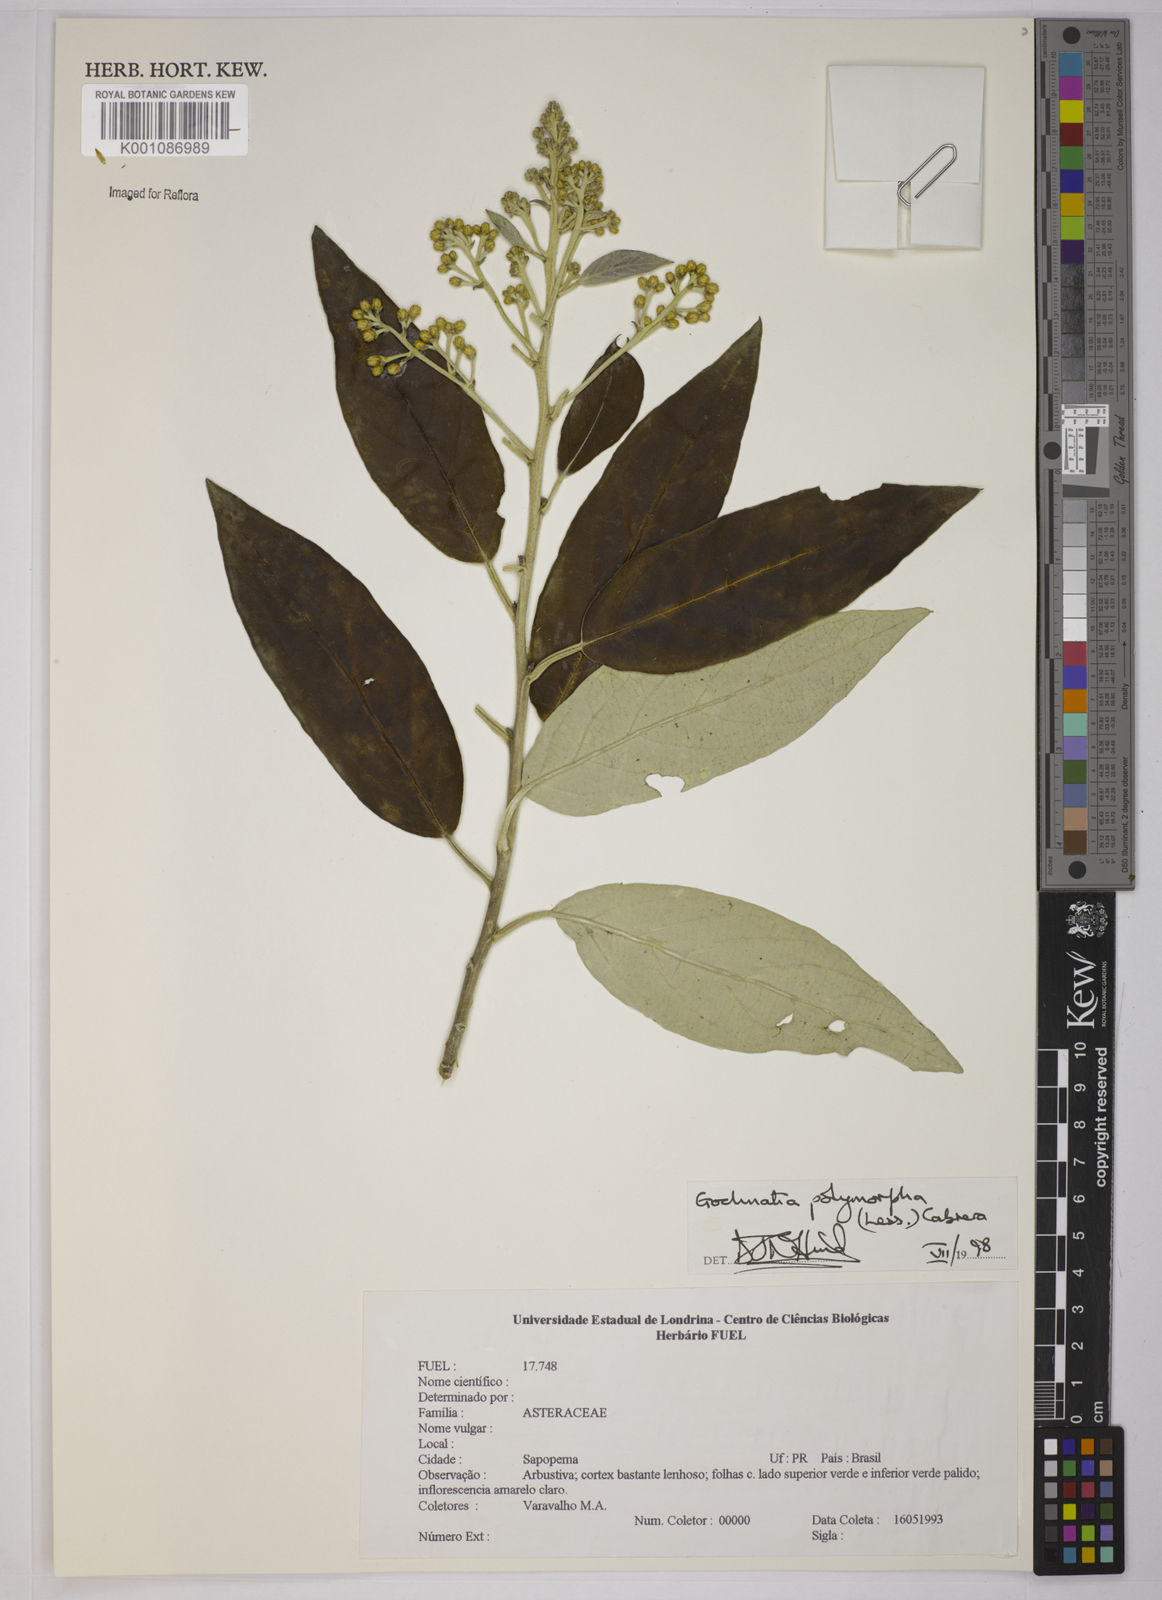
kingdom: Plantae
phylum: Tracheophyta
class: Magnoliopsida
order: Asterales
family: Asteraceae
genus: Moquiniastrum
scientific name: Moquiniastrum polymorphum
